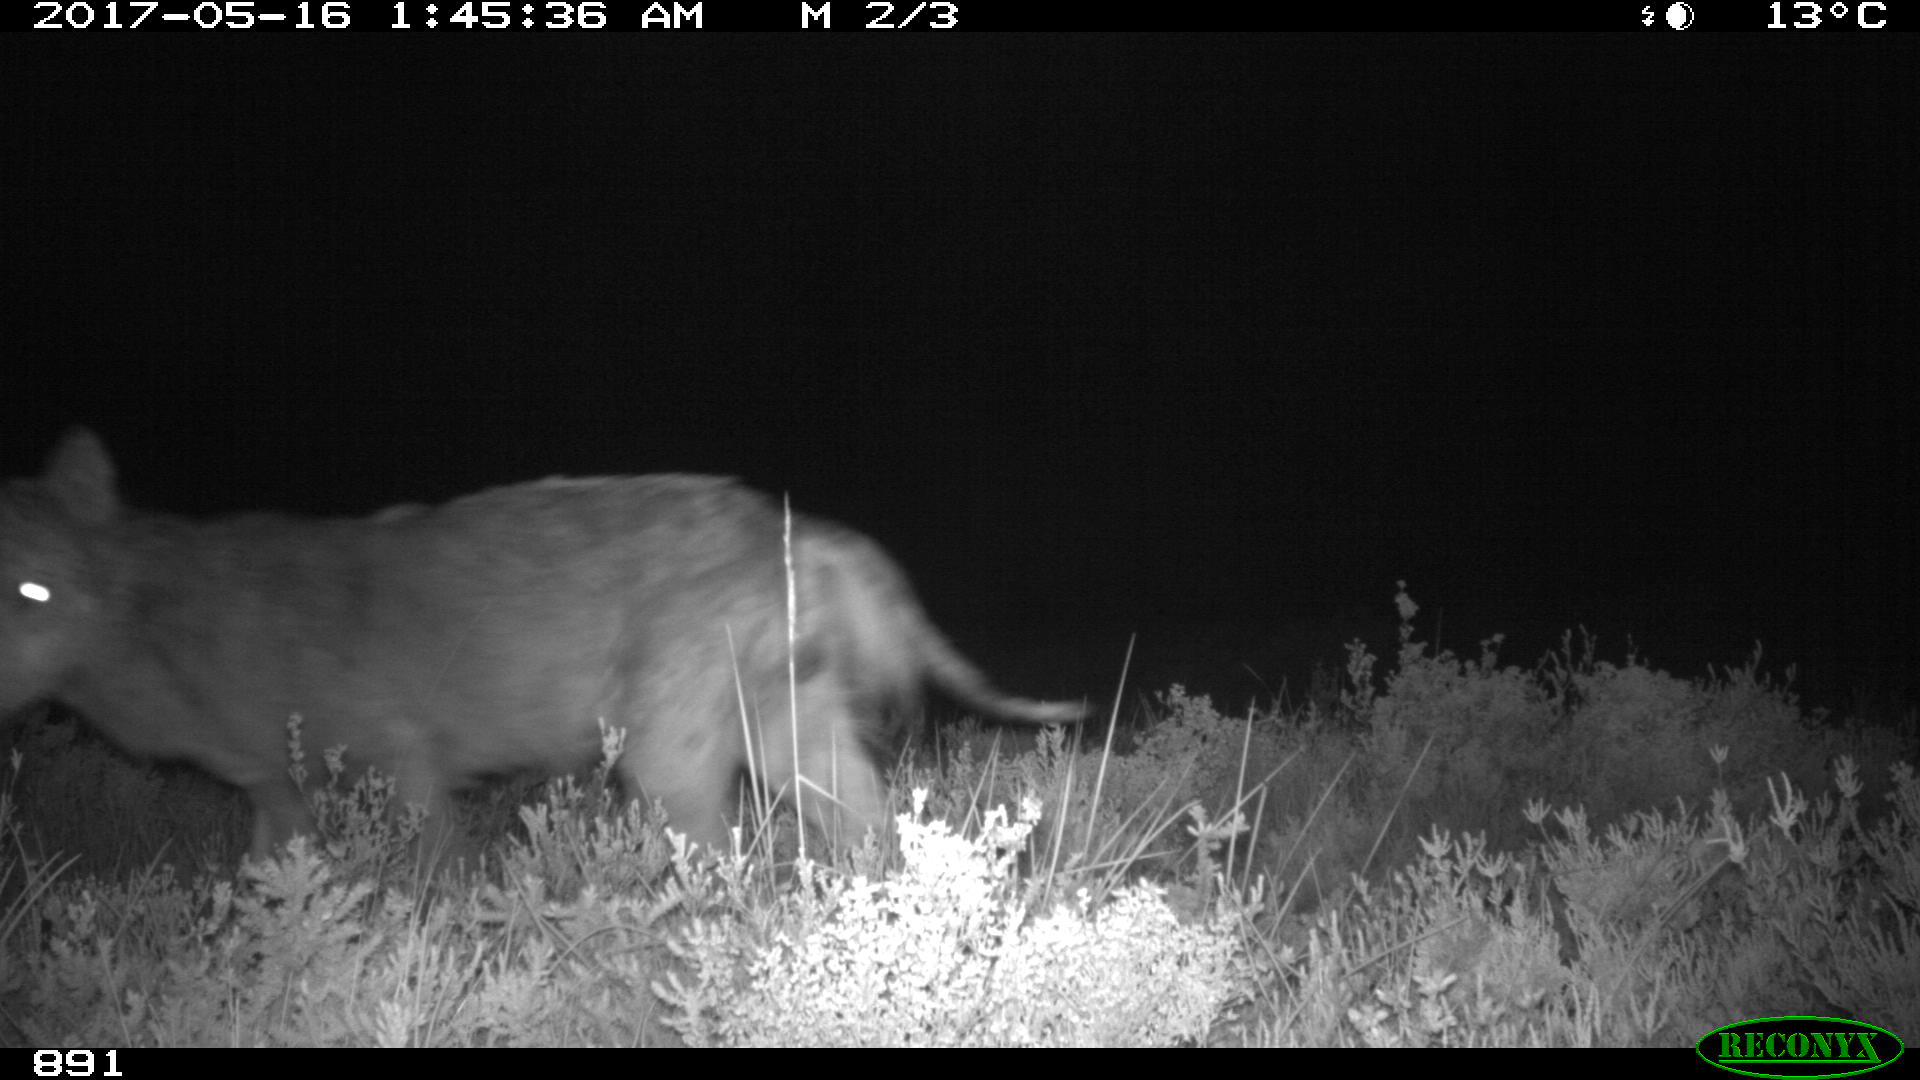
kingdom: Animalia
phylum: Chordata
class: Mammalia
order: Carnivora
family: Canidae
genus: Canis
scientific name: Canis lupus
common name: Gray wolf
